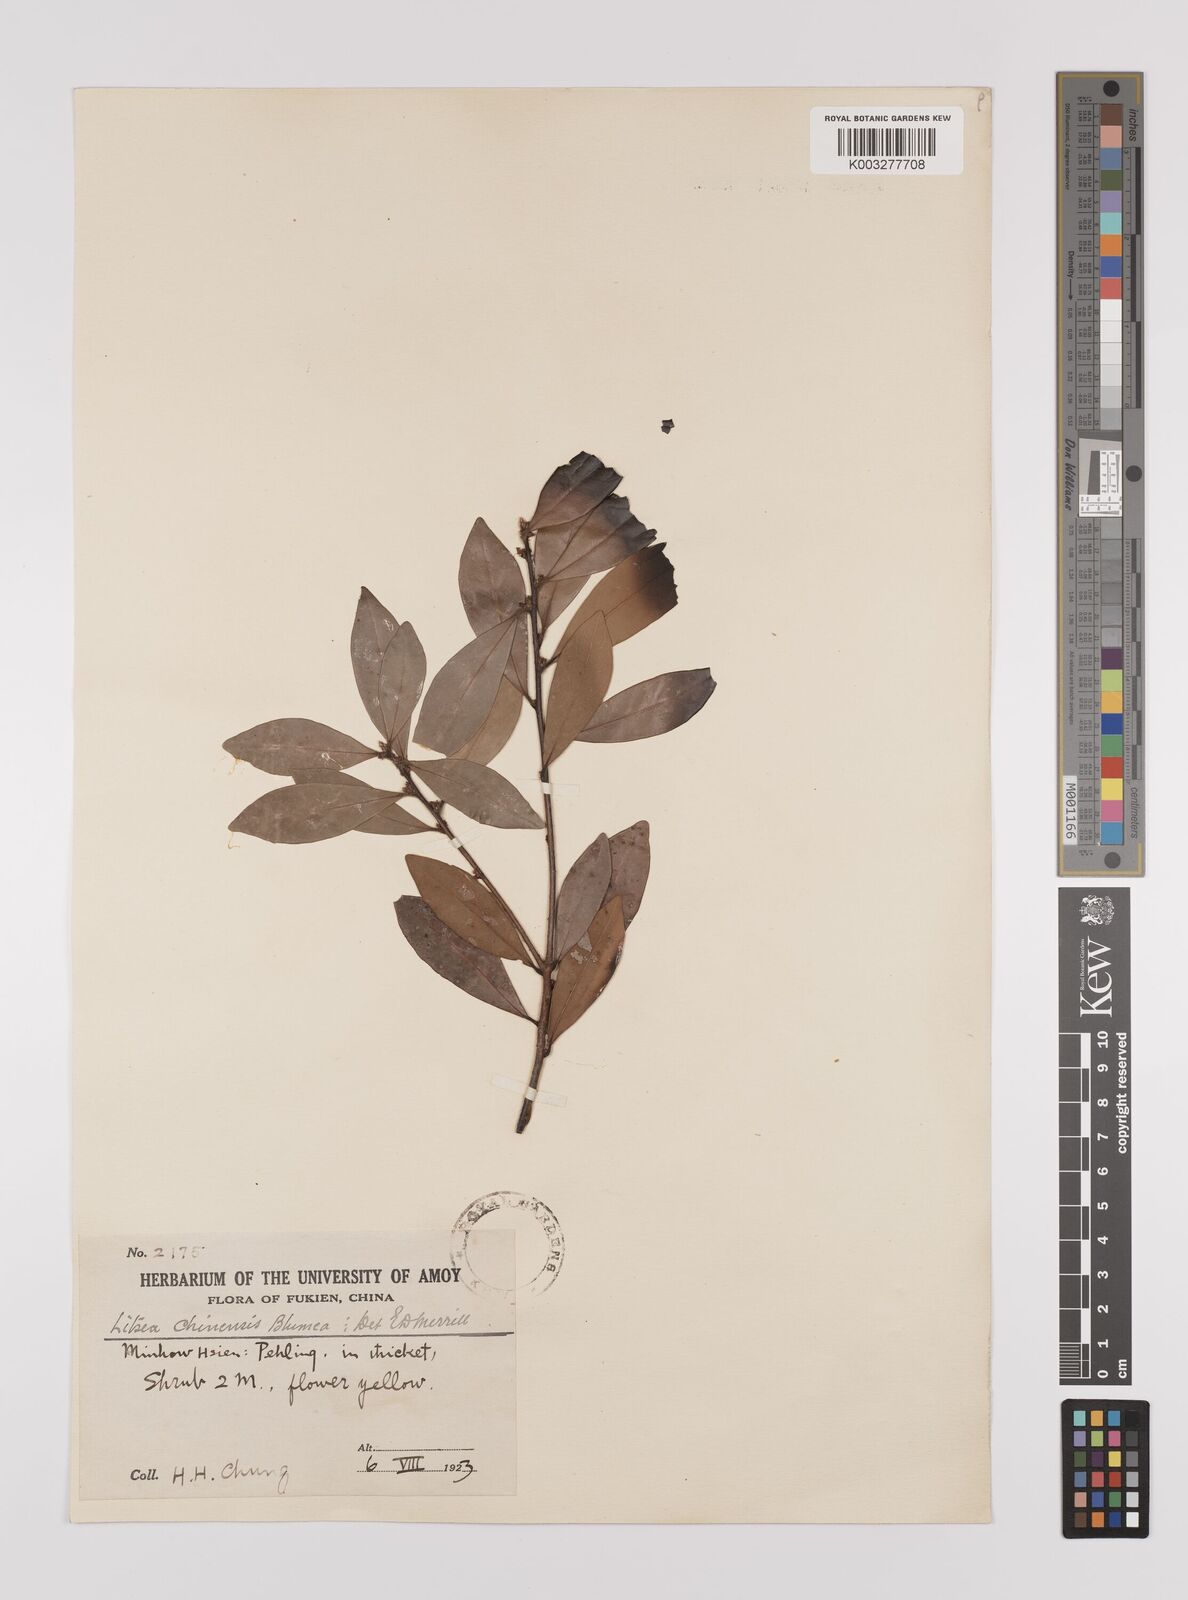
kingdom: Plantae
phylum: Tracheophyta
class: Magnoliopsida
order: Laurales
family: Lauraceae
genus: Litsea
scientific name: Litsea rotundifolia
